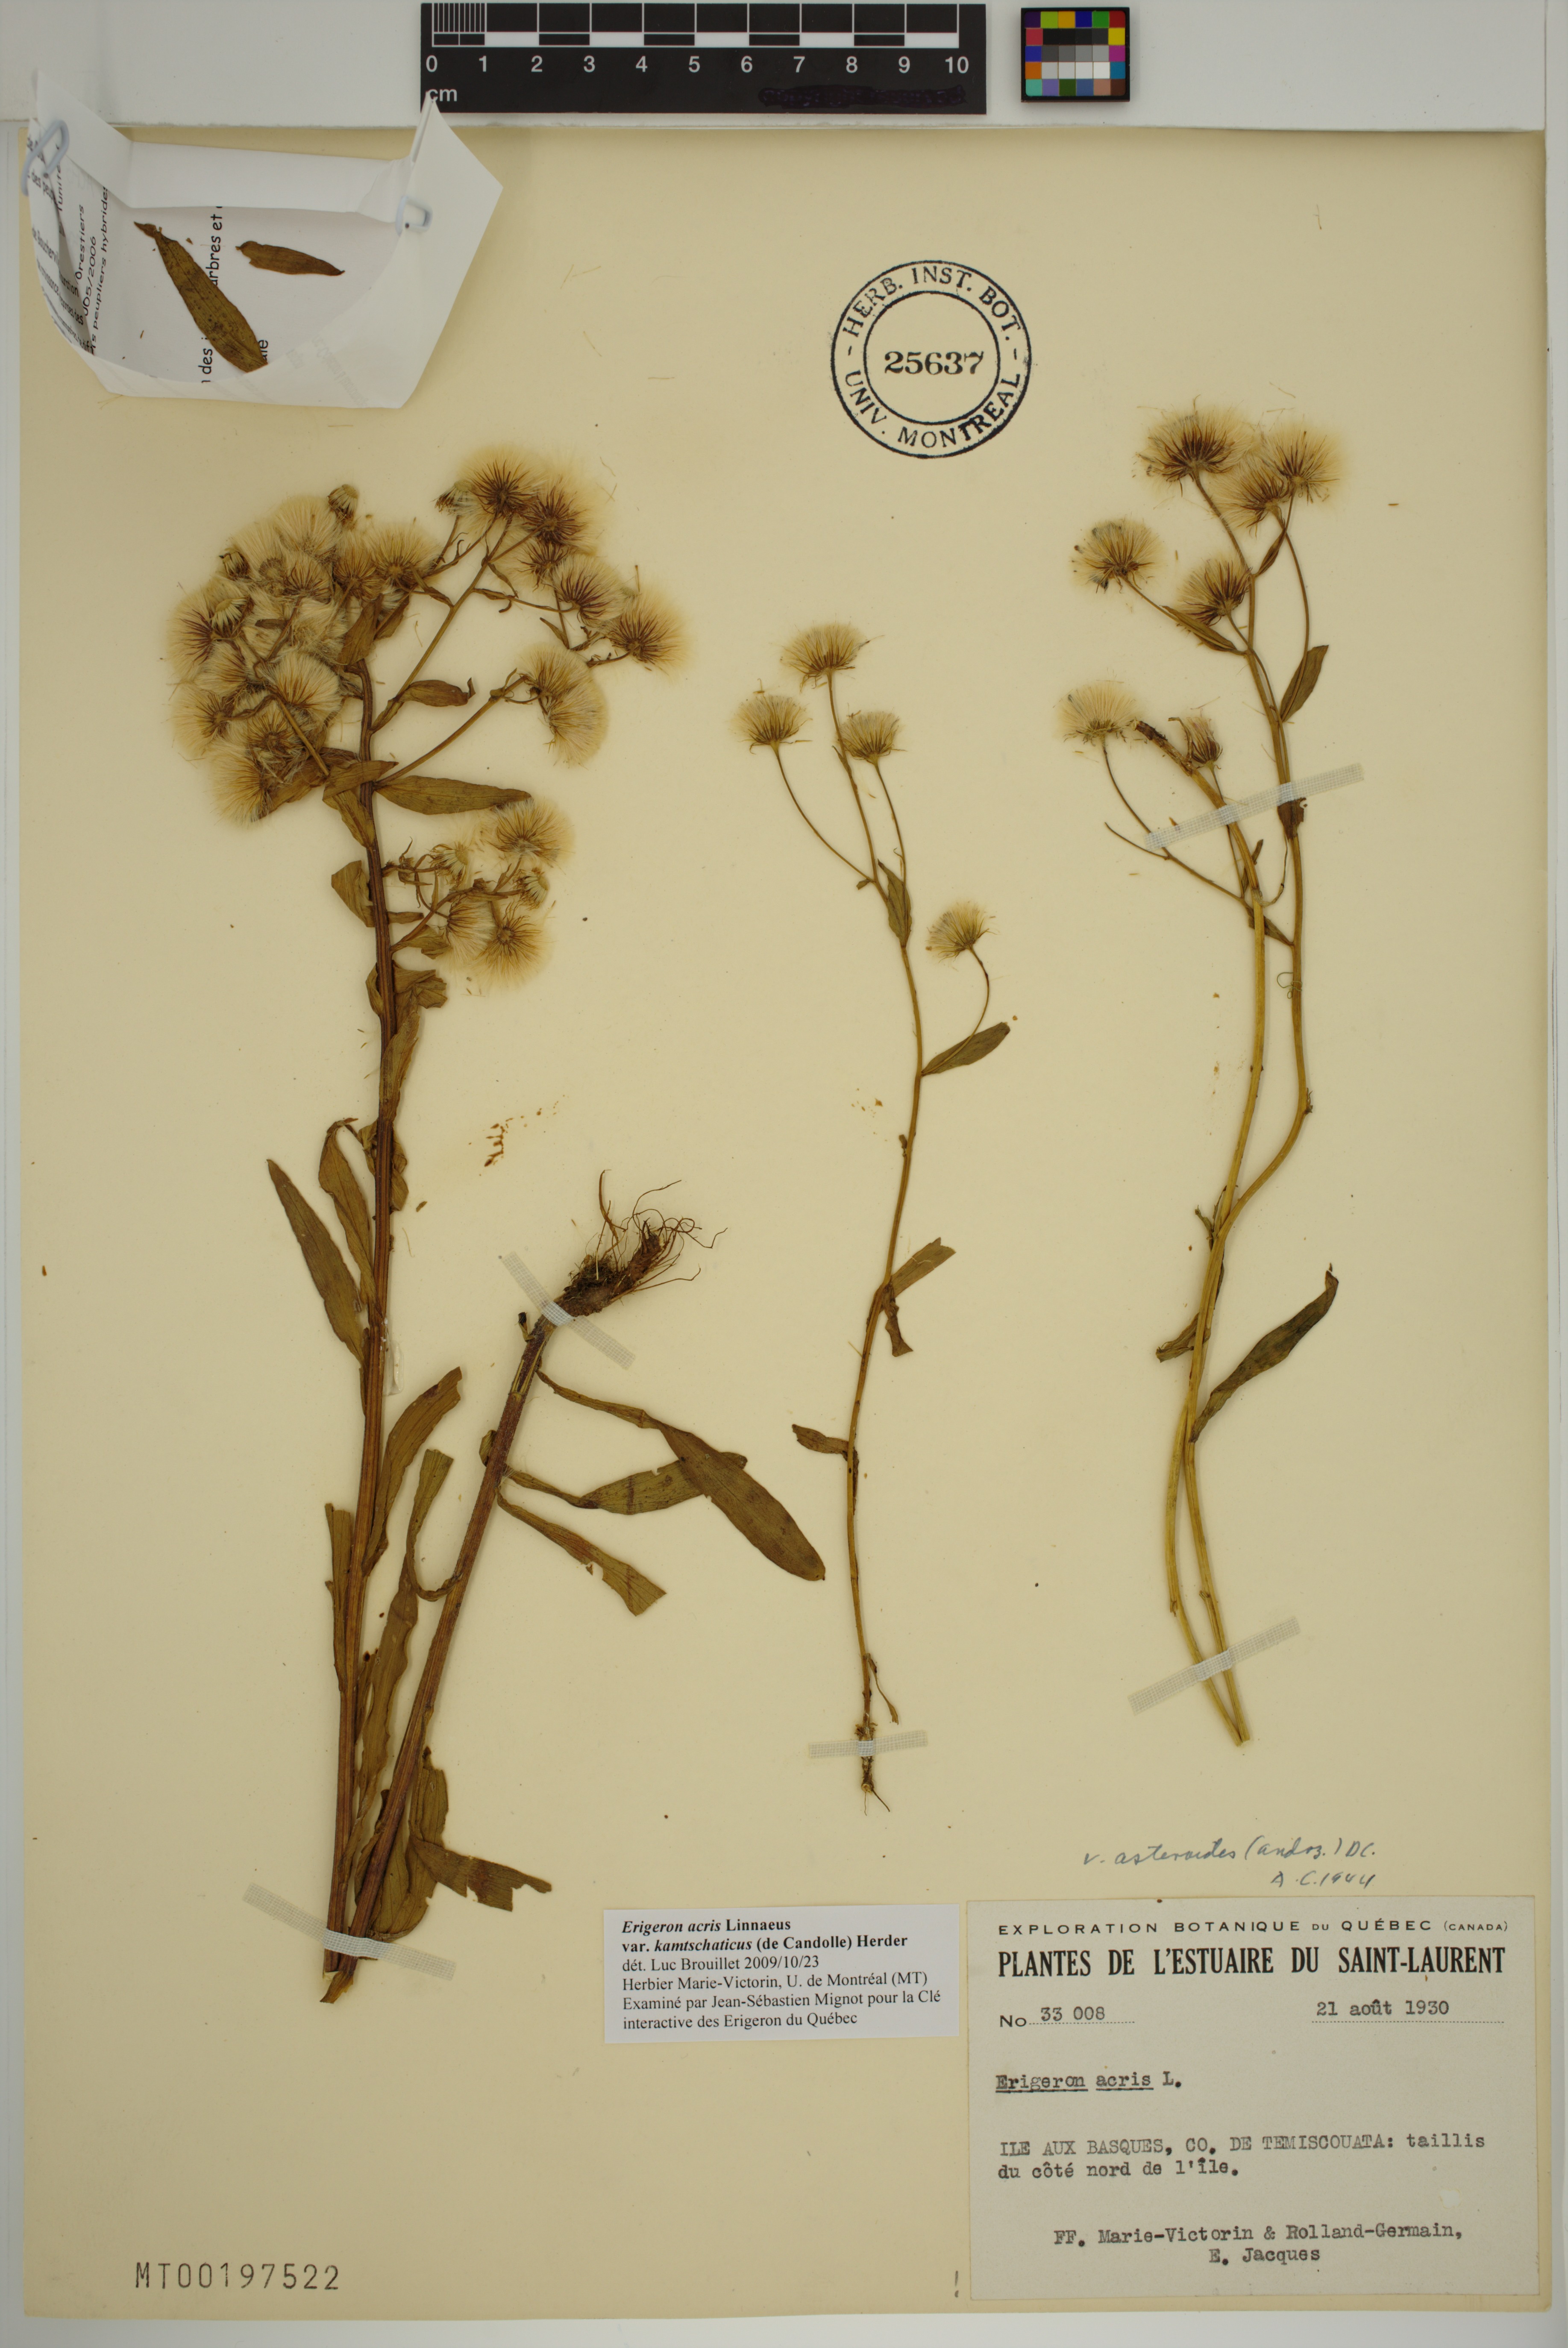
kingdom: Plantae
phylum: Tracheophyta
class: Magnoliopsida
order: Asterales
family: Asteraceae
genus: Erigeron
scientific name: Erigeron kamtschaticus
